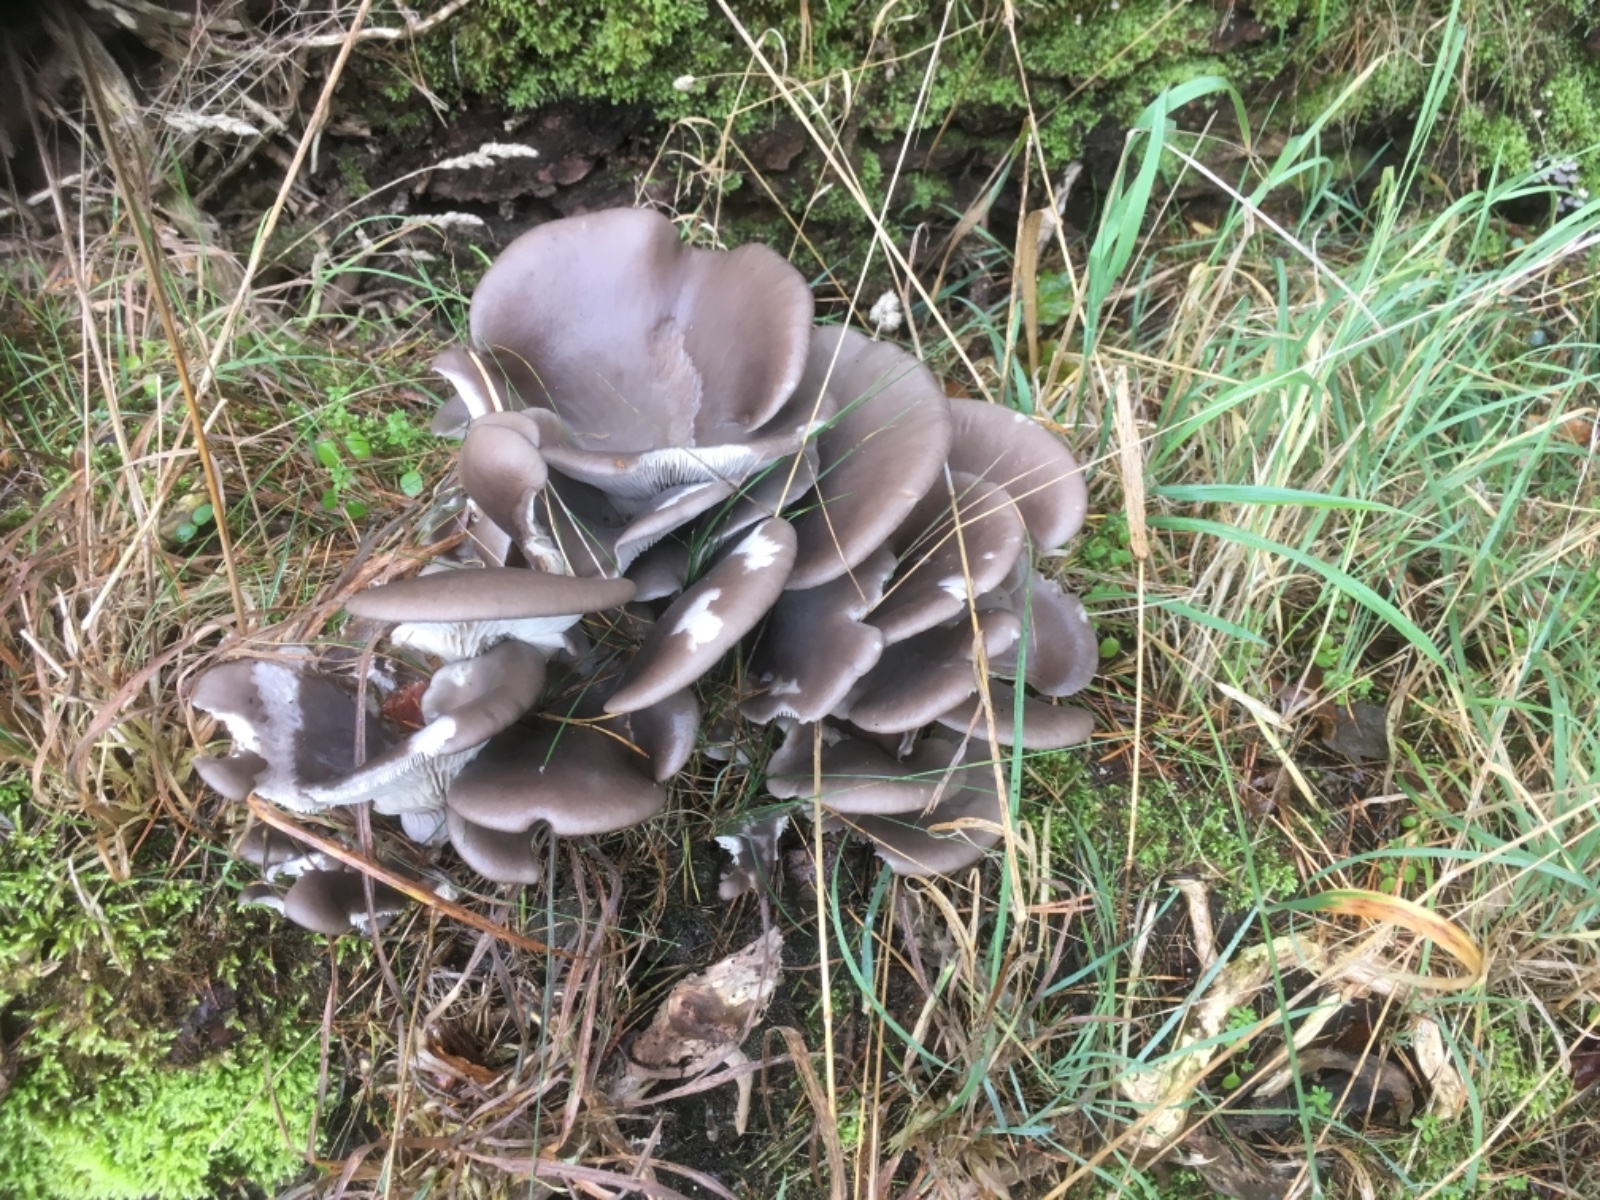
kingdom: Fungi
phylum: Basidiomycota
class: Agaricomycetes
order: Agaricales
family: Pleurotaceae
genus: Pleurotus
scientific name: Pleurotus ostreatus
